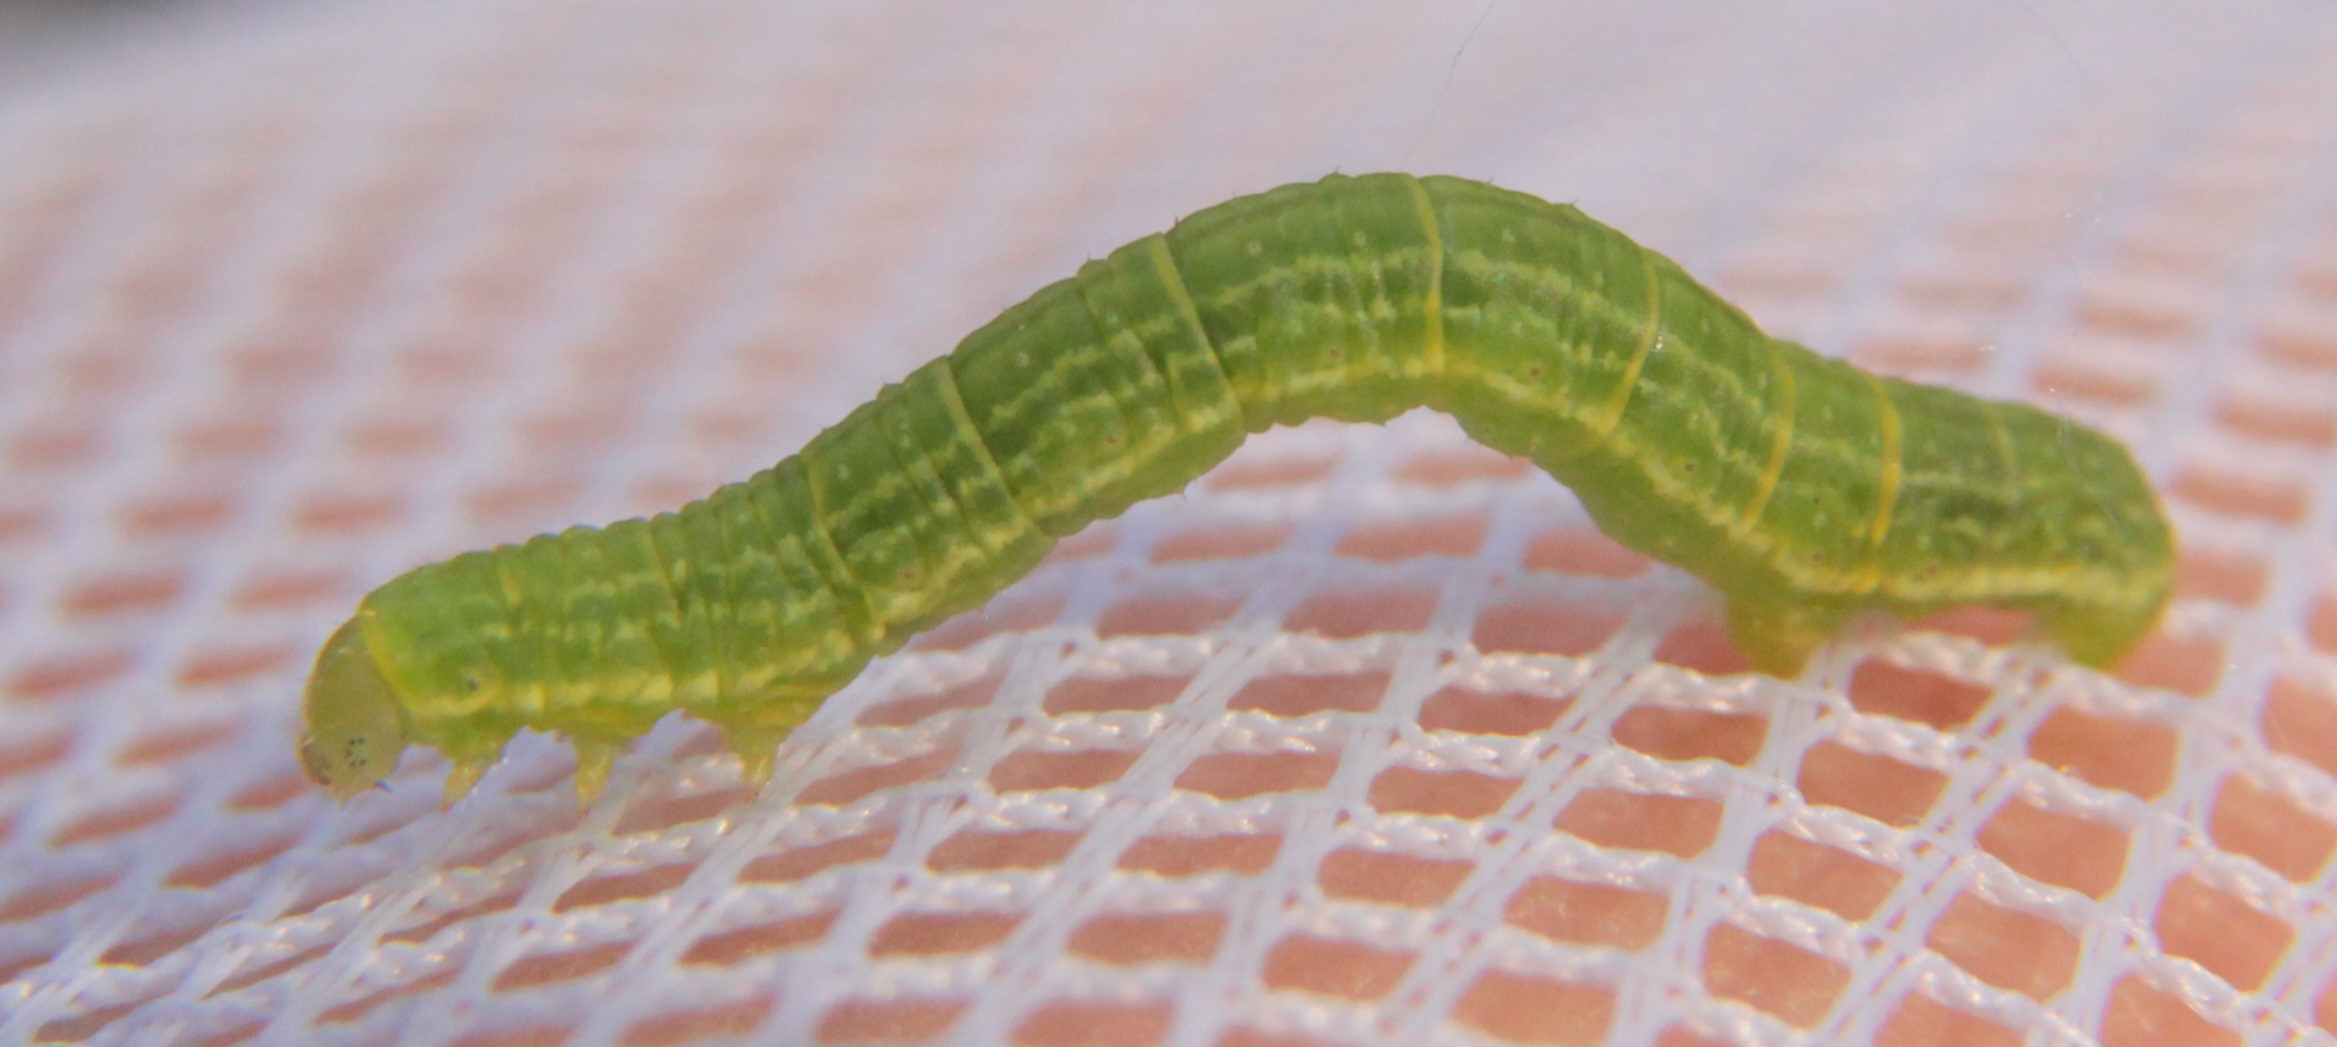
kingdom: Animalia
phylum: Arthropoda
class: Insecta
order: Lepidoptera
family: Geometridae
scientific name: Geometridae
